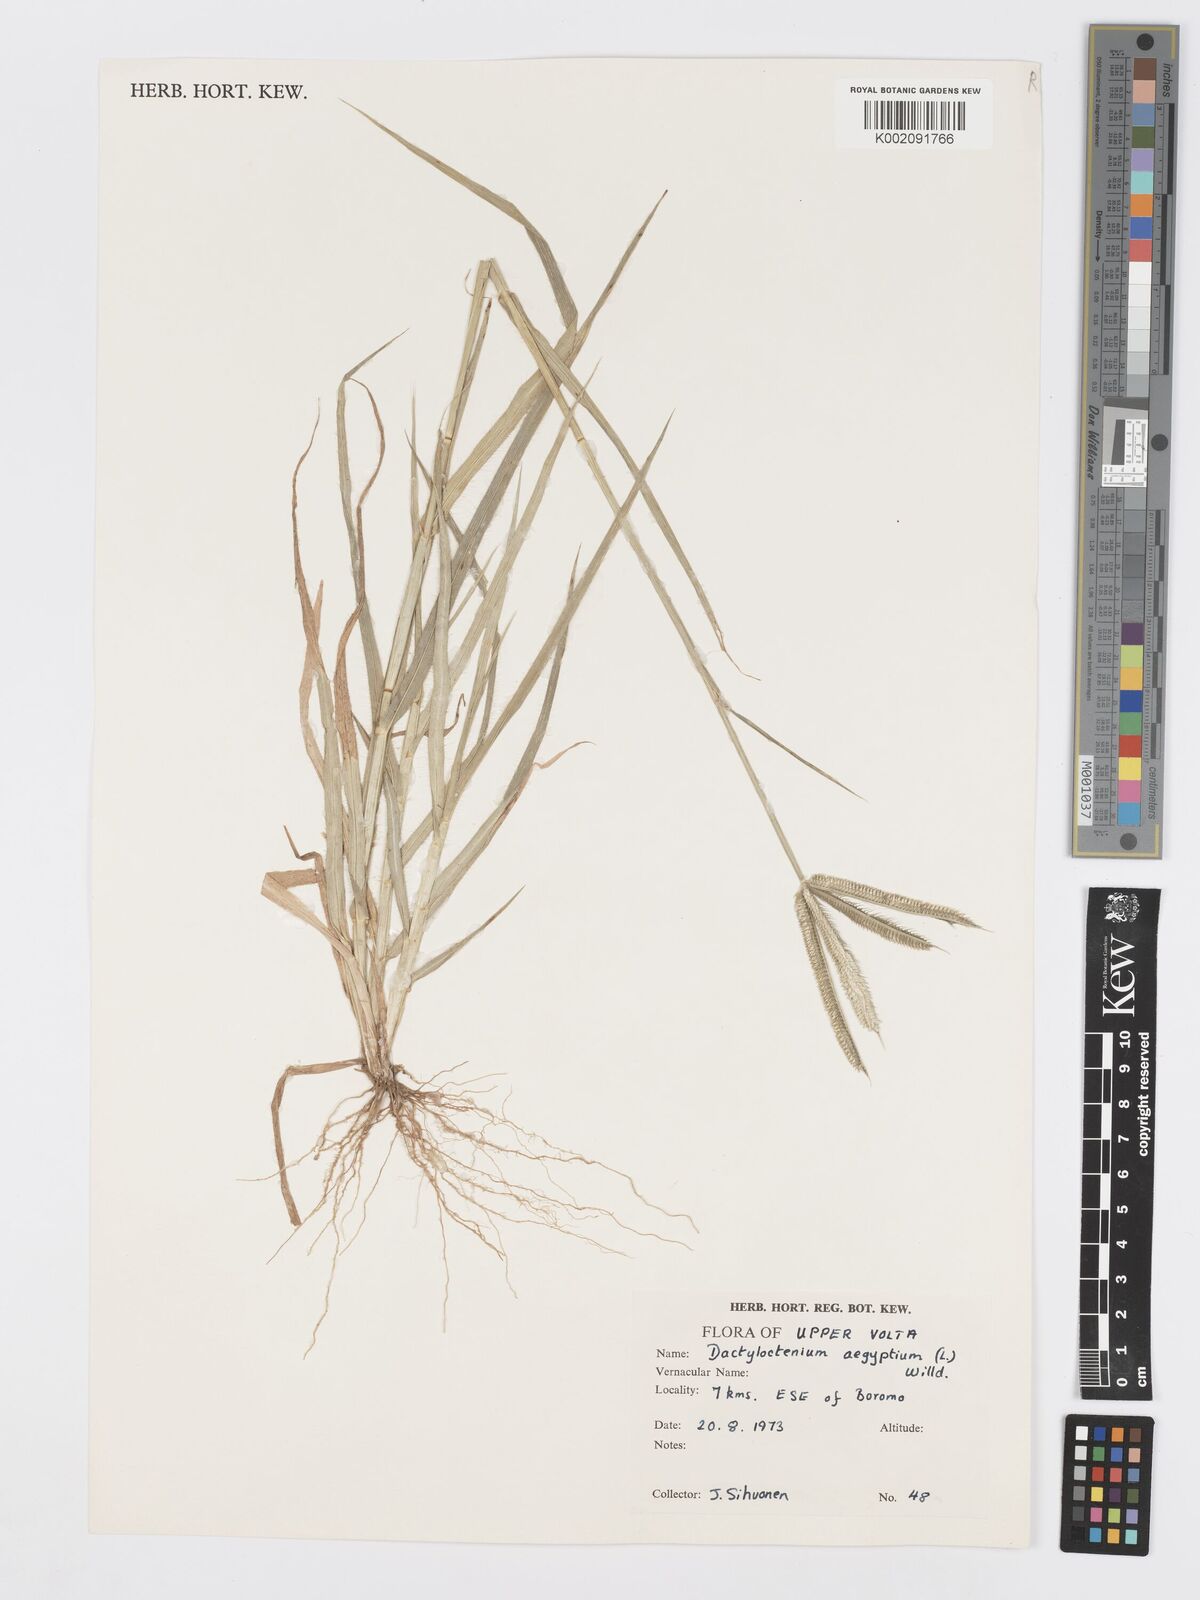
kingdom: Plantae
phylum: Tracheophyta
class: Liliopsida
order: Poales
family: Poaceae
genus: Dactyloctenium
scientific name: Dactyloctenium aegyptium
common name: Egyptian grass
